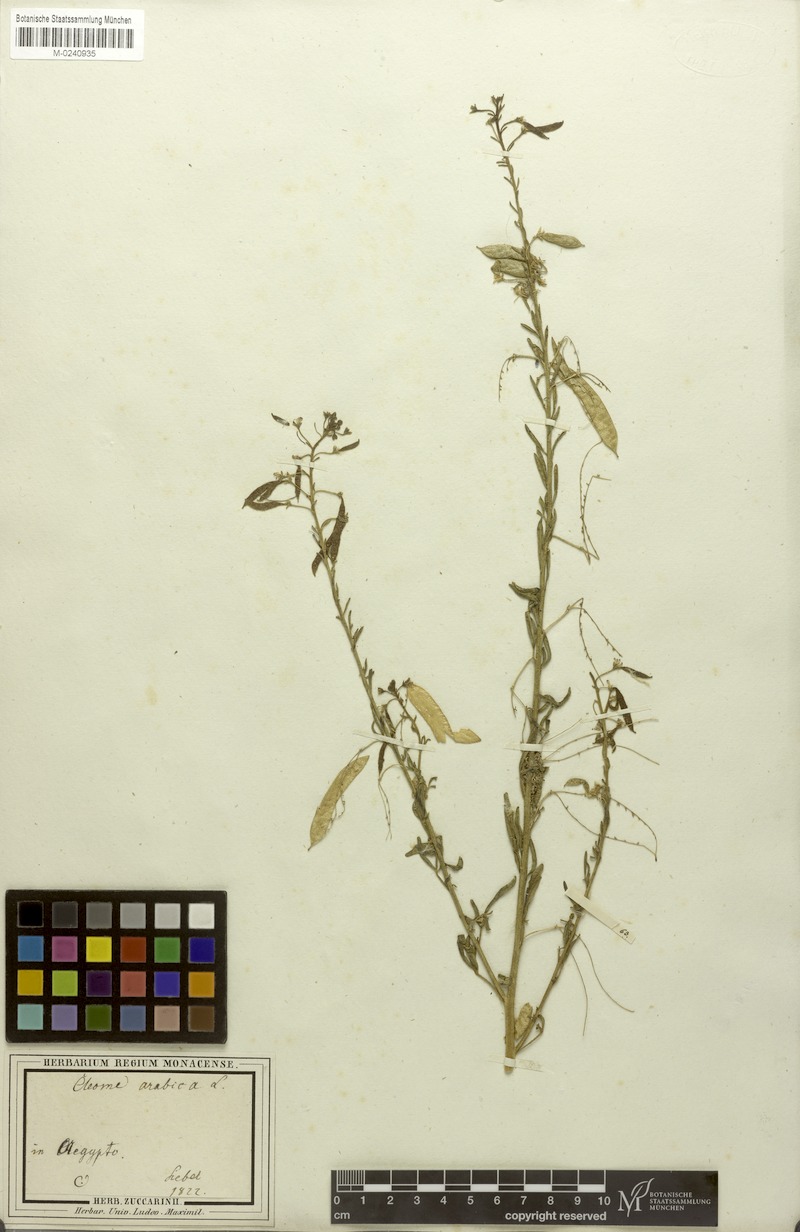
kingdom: Plantae
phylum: Tracheophyta
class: Magnoliopsida
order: Brassicales
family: Cleomaceae
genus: Cleome
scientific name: Cleome arabica
